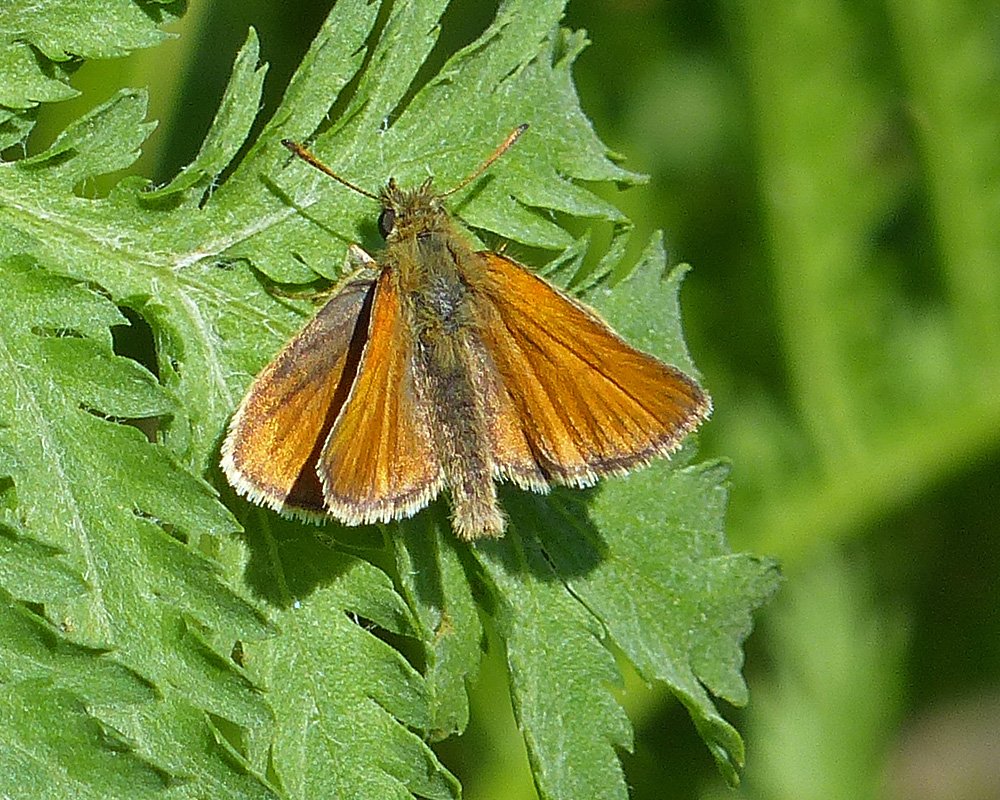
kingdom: Animalia
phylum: Arthropoda
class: Insecta
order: Lepidoptera
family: Hesperiidae
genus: Thymelicus
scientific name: Thymelicus lineola
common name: European Skipper
